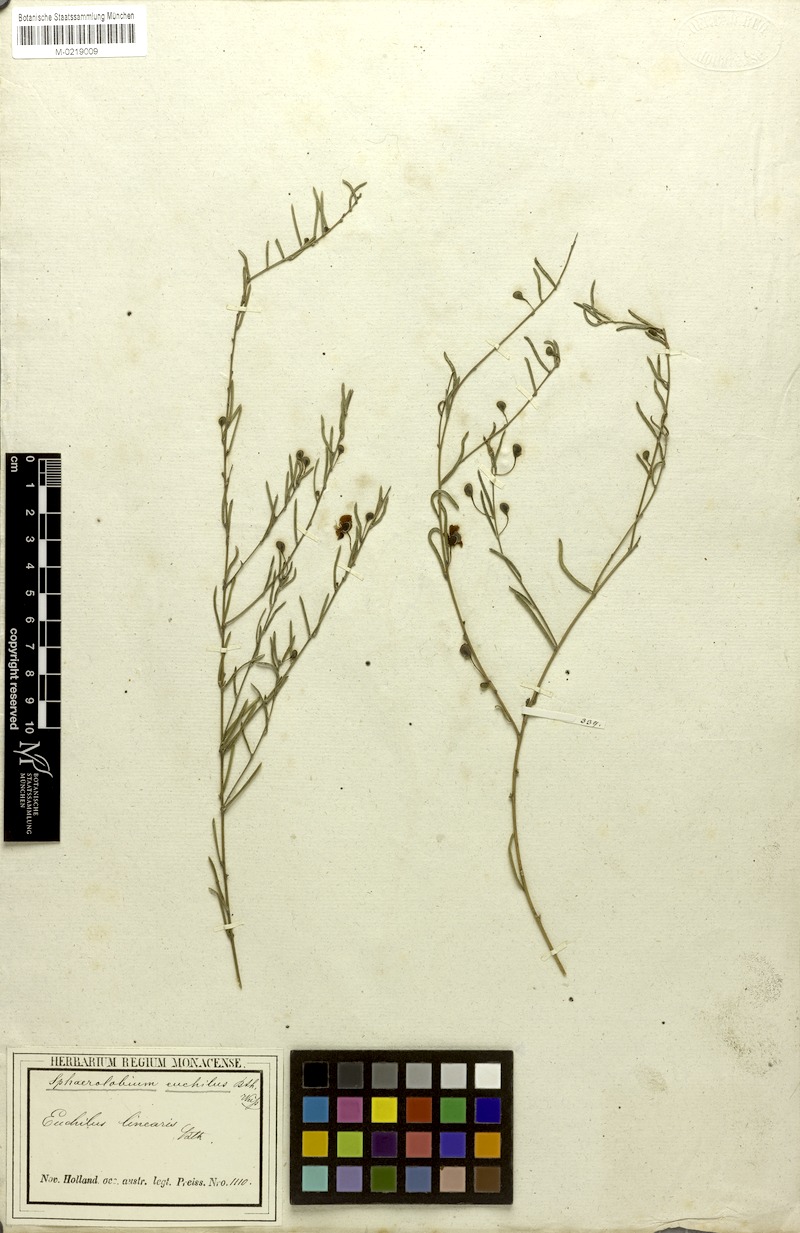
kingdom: Plantae
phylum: Tracheophyta
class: Magnoliopsida
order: Fabales
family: Fabaceae
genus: Euchilopsis
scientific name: Euchilopsis linearis
